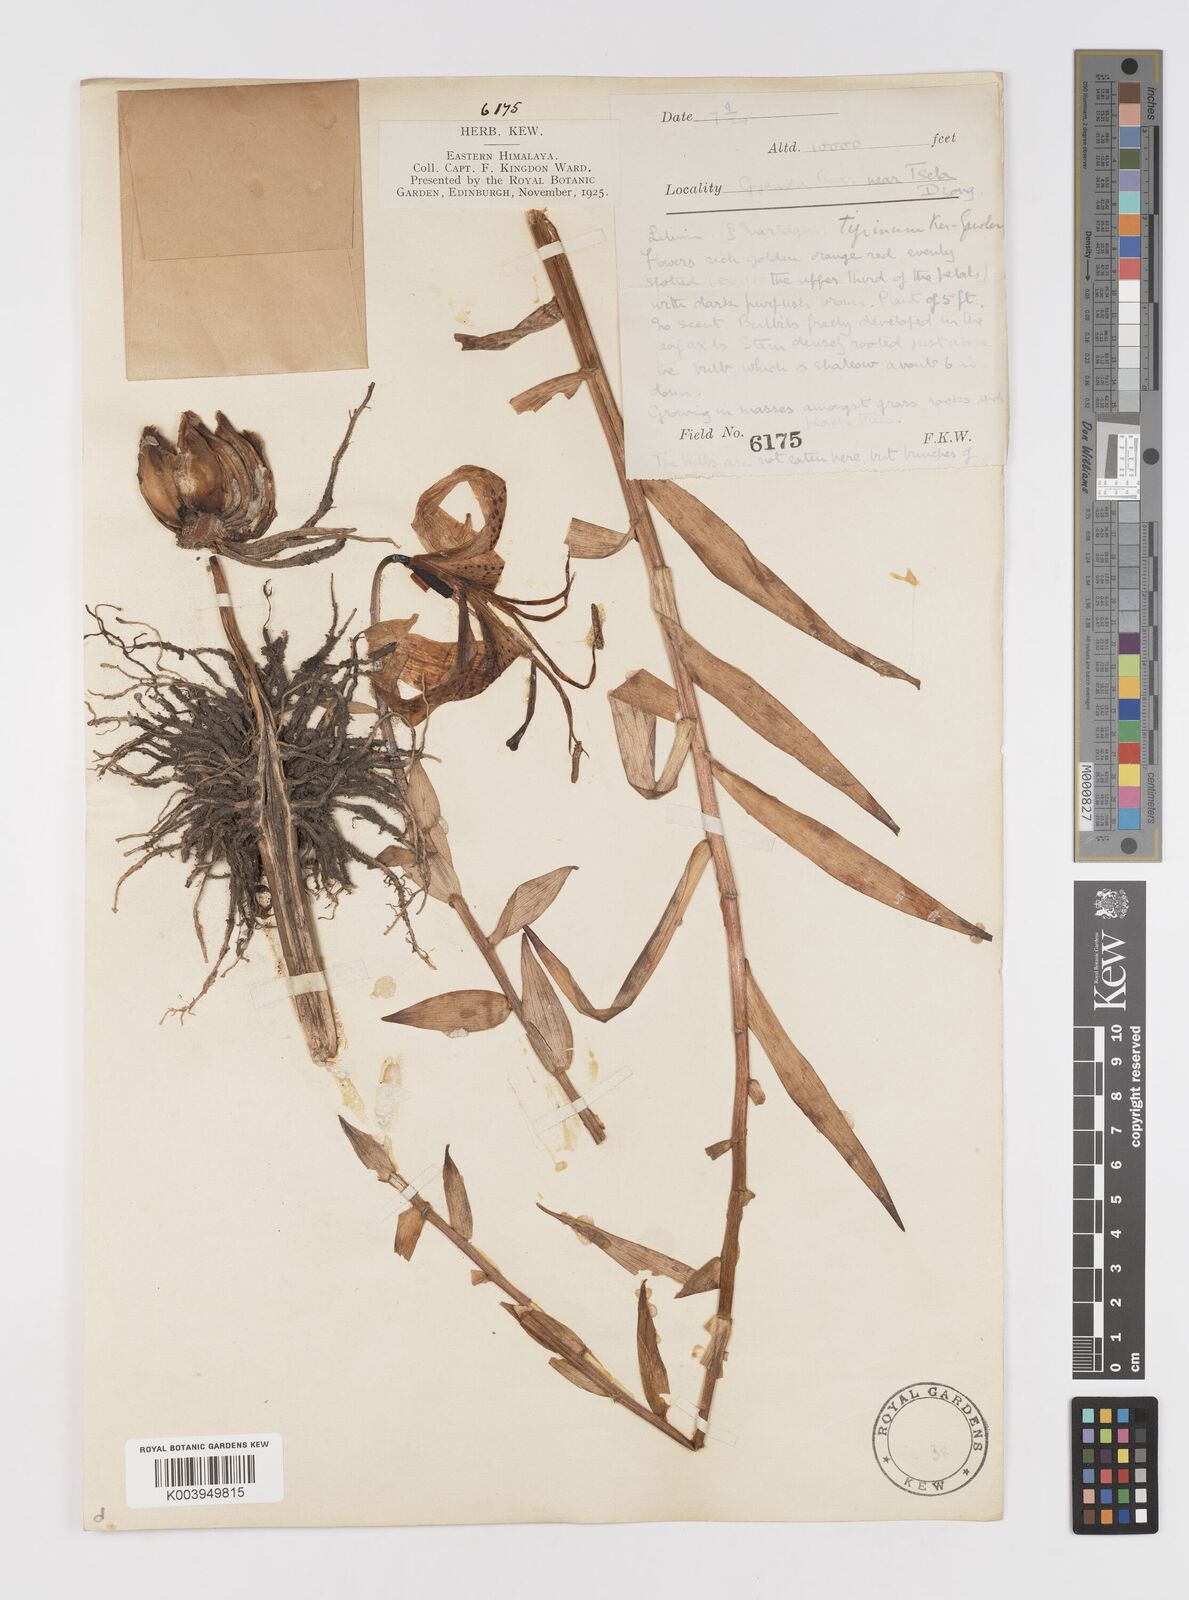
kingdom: Plantae
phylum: Tracheophyta
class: Liliopsida
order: Liliales
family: Liliaceae
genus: Lilium
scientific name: Lilium lancifolium
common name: Tiger lily
